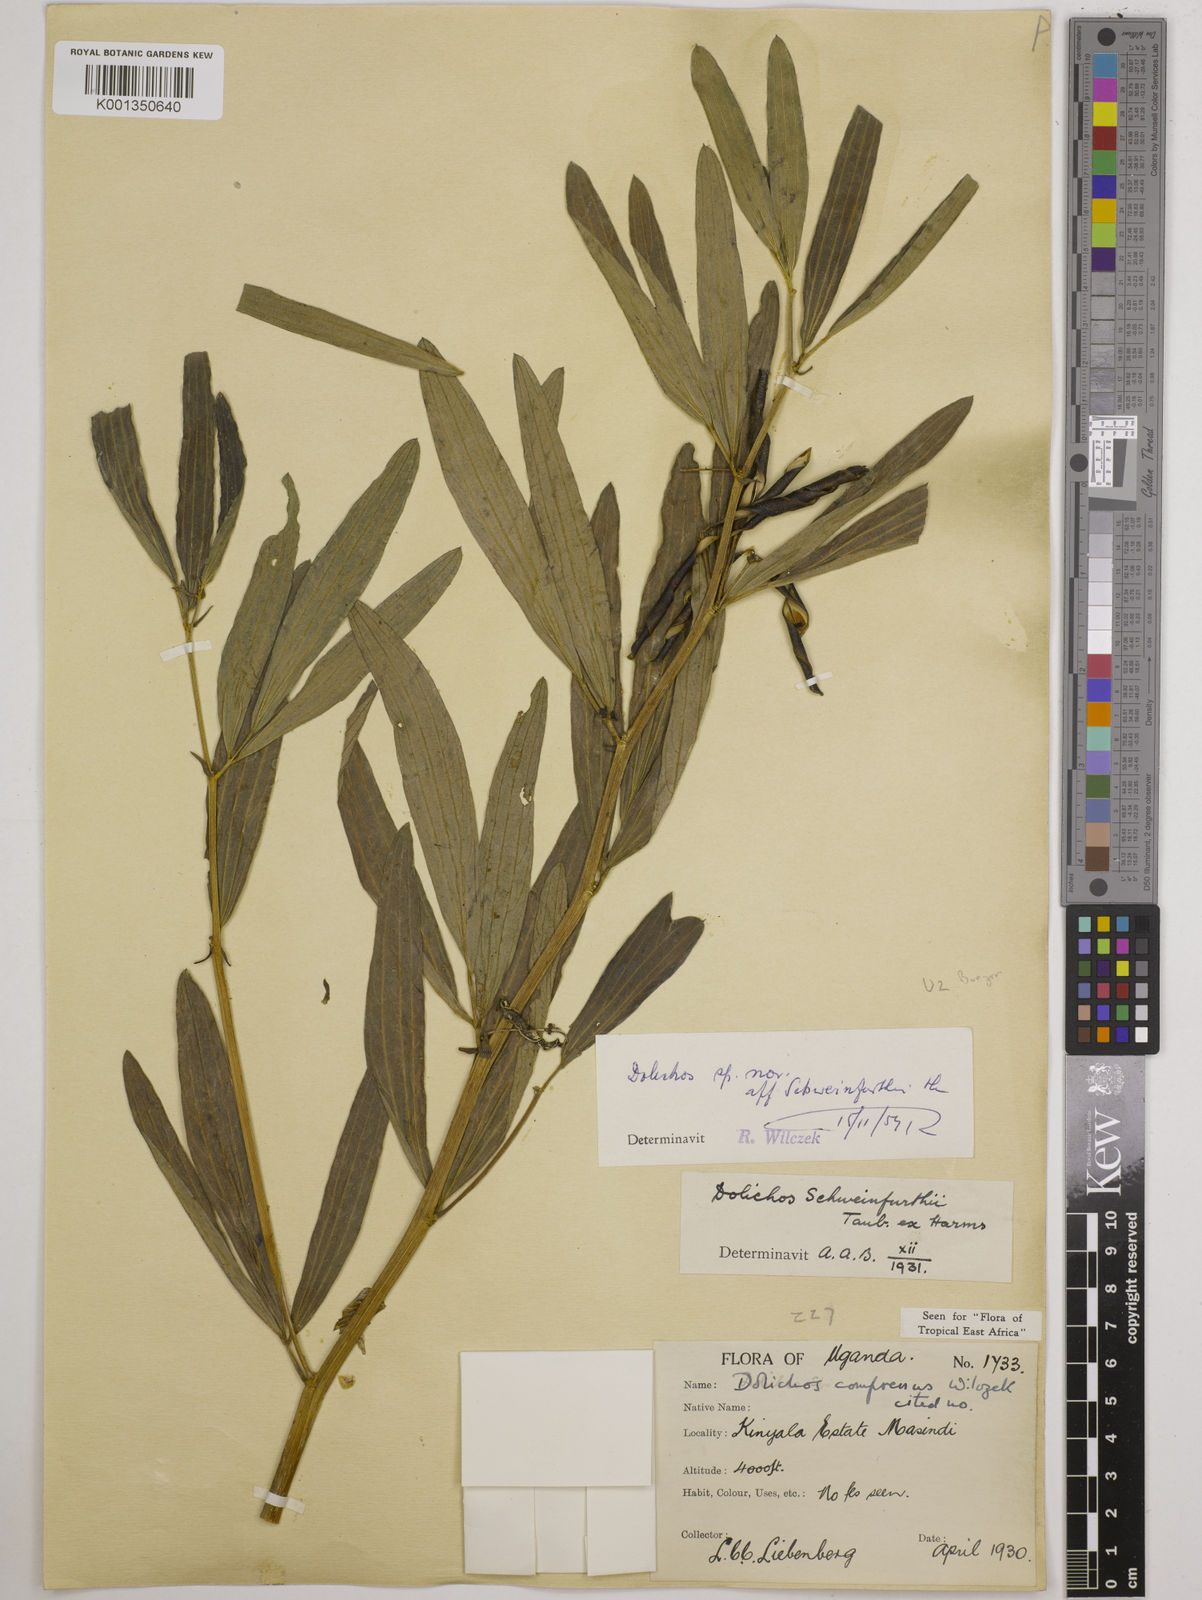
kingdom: Plantae
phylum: Tracheophyta
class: Magnoliopsida
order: Fabales
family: Fabaceae
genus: Dolichos
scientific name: Dolichos compressus
